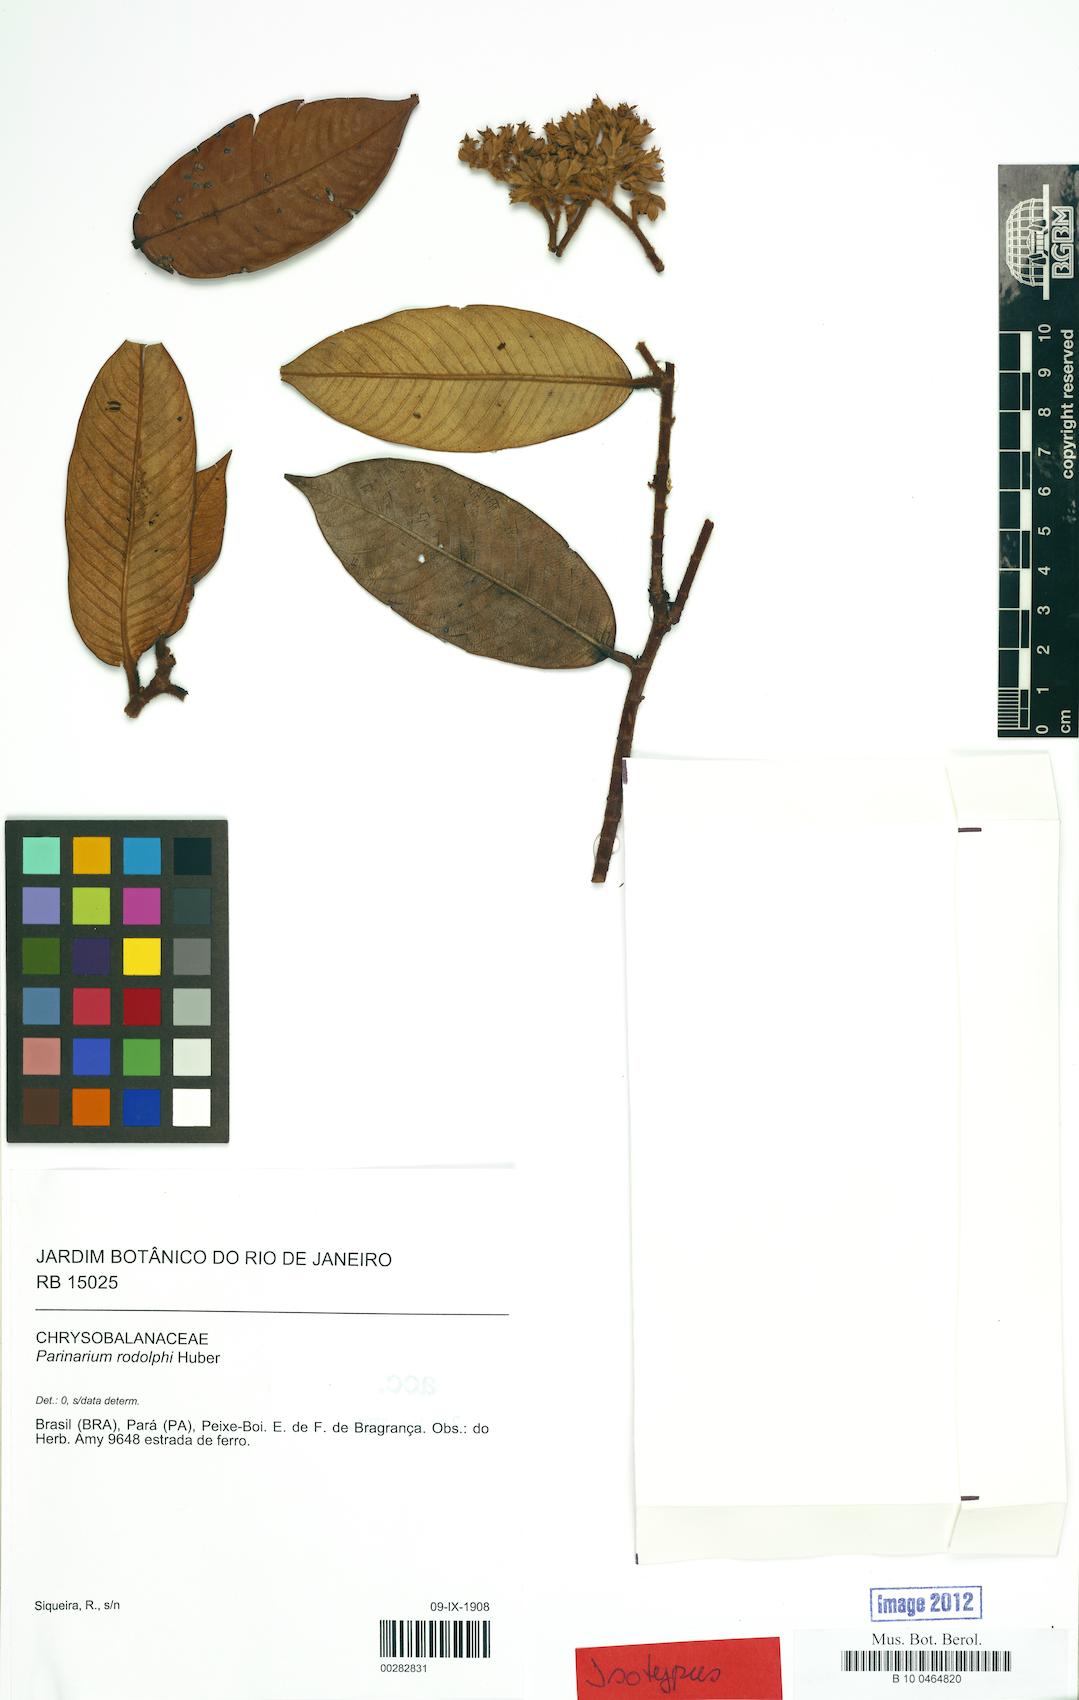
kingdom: Plantae
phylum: Tracheophyta
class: Magnoliopsida
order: Malpighiales
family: Chrysobalanaceae
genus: Parinari
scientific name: Parinari rodolphii
